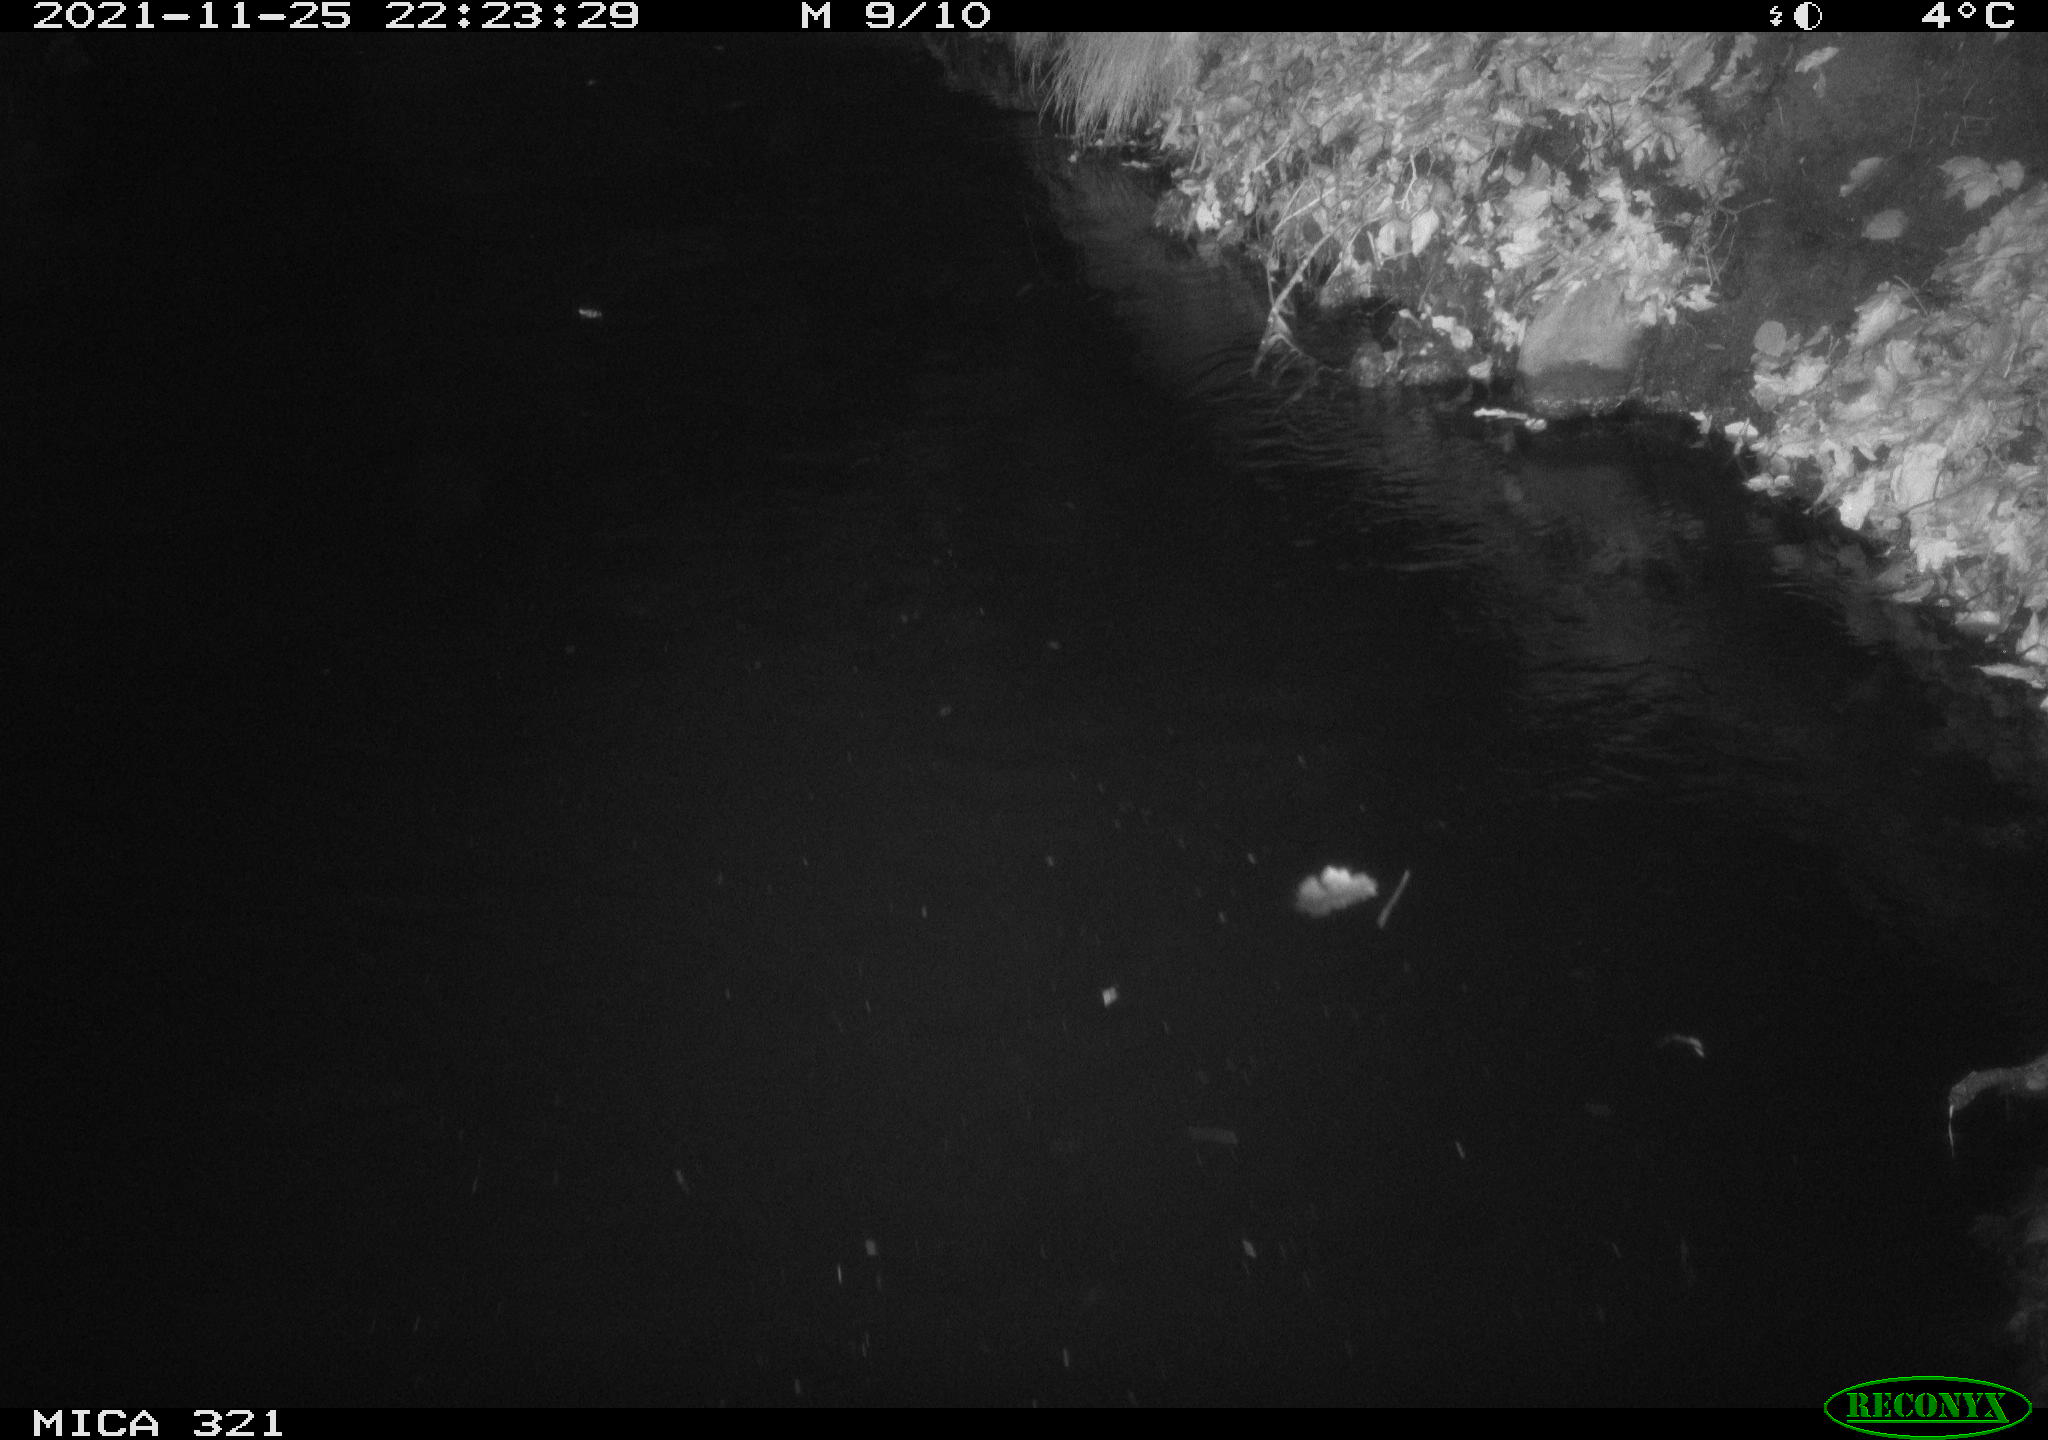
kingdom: Animalia
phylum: Chordata
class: Aves
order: Gruiformes
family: Rallidae
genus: Fulica
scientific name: Fulica atra
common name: Eurasian coot
